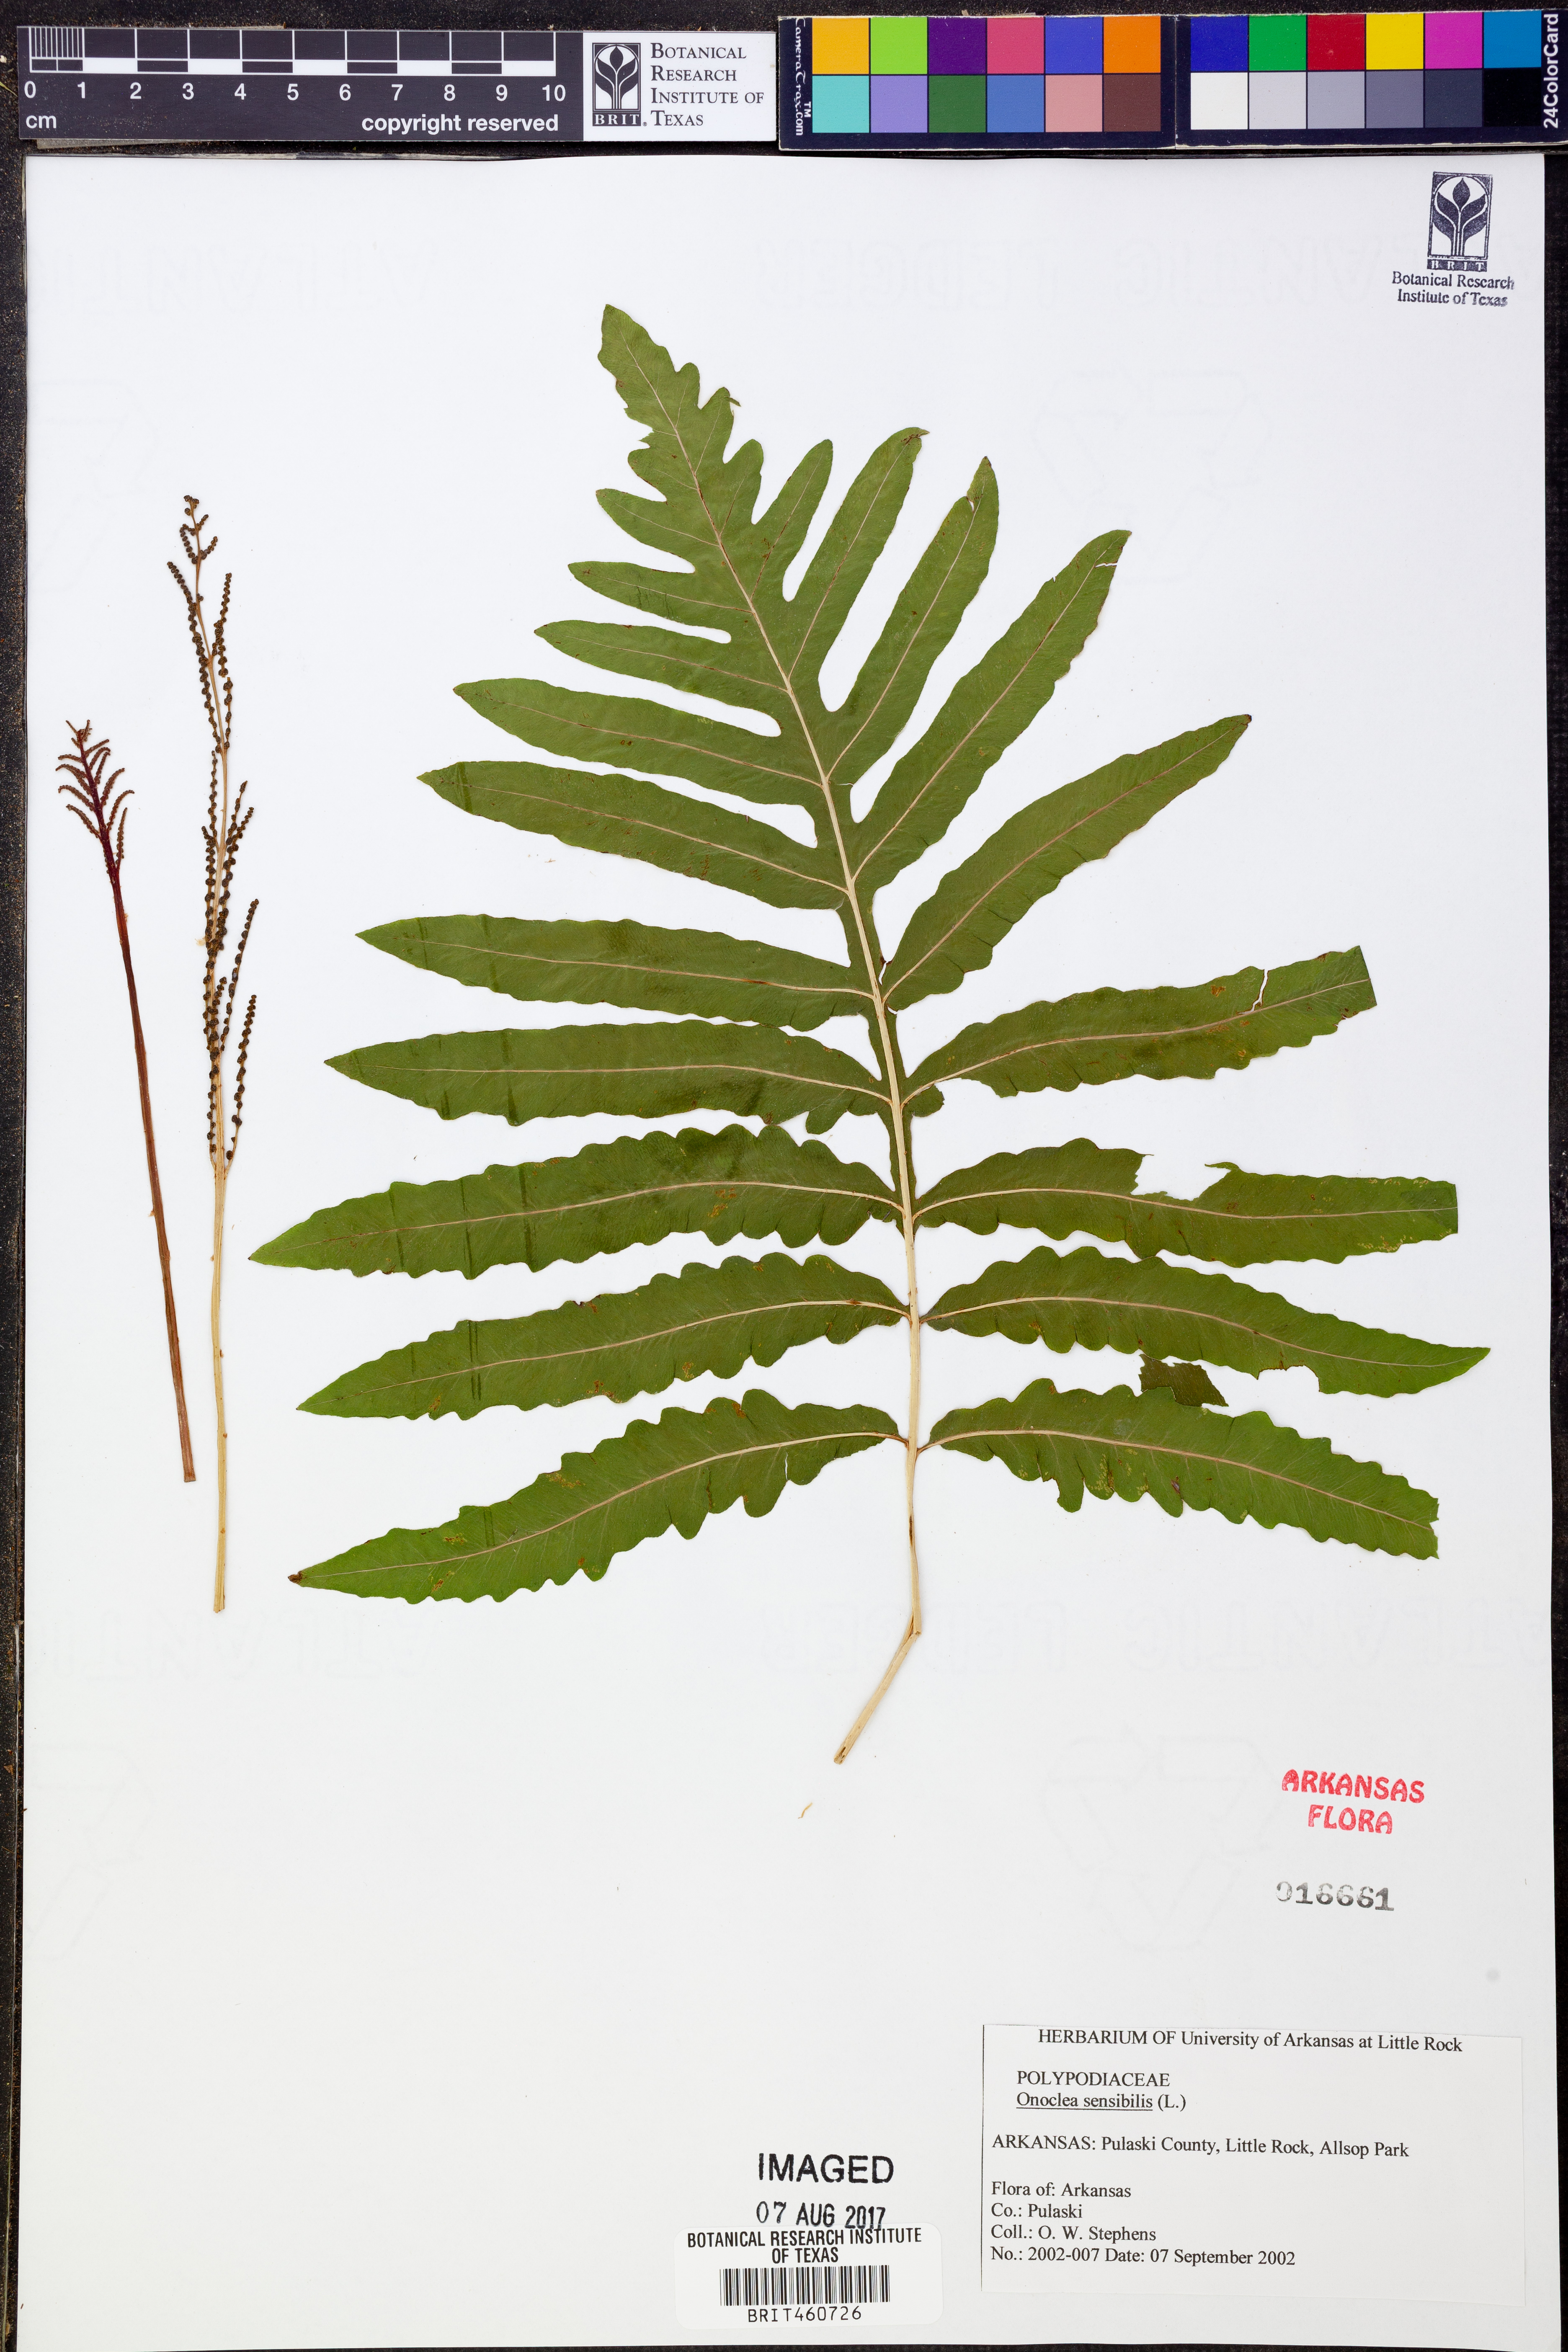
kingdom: Plantae
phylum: Tracheophyta
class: Polypodiopsida
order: Polypodiales
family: Onocleaceae
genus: Onoclea
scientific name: Onoclea sensibilis
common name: Sensitive fern
